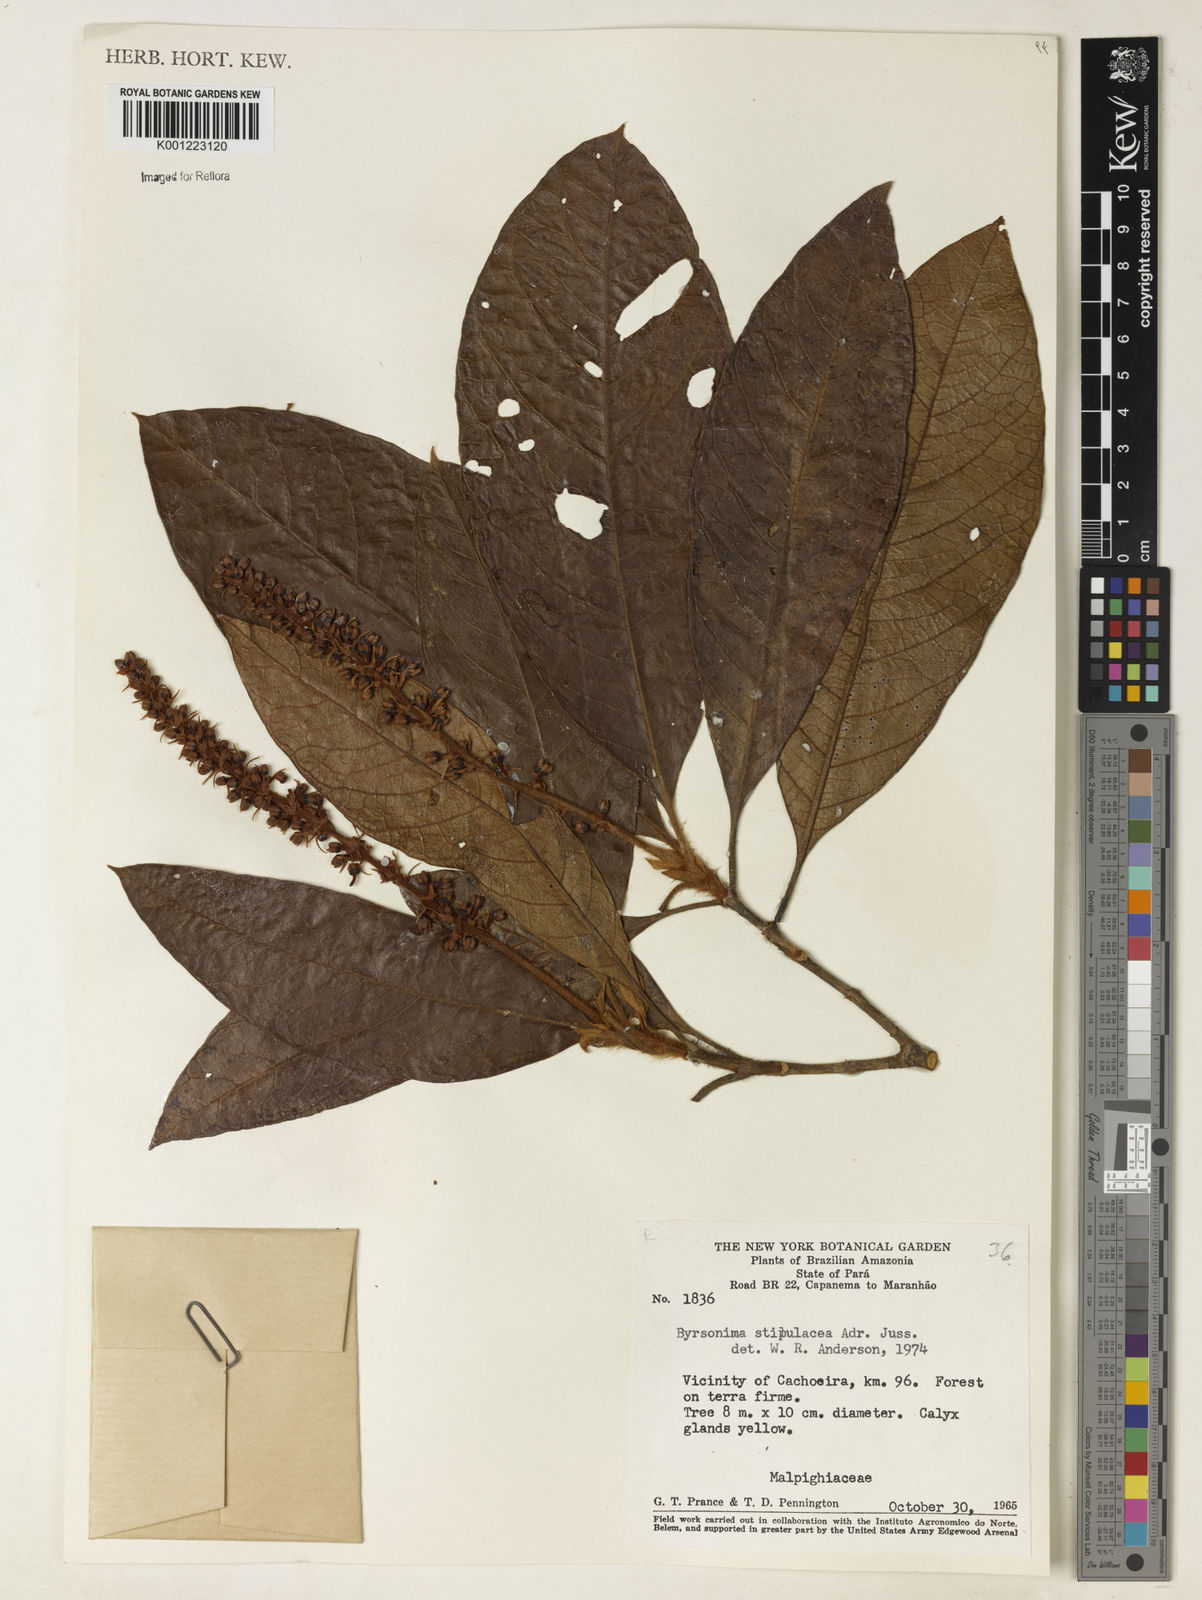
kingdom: Plantae
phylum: Tracheophyta
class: Magnoliopsida
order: Malpighiales
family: Malpighiaceae
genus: Byrsonima
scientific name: Byrsonima stipulacea
